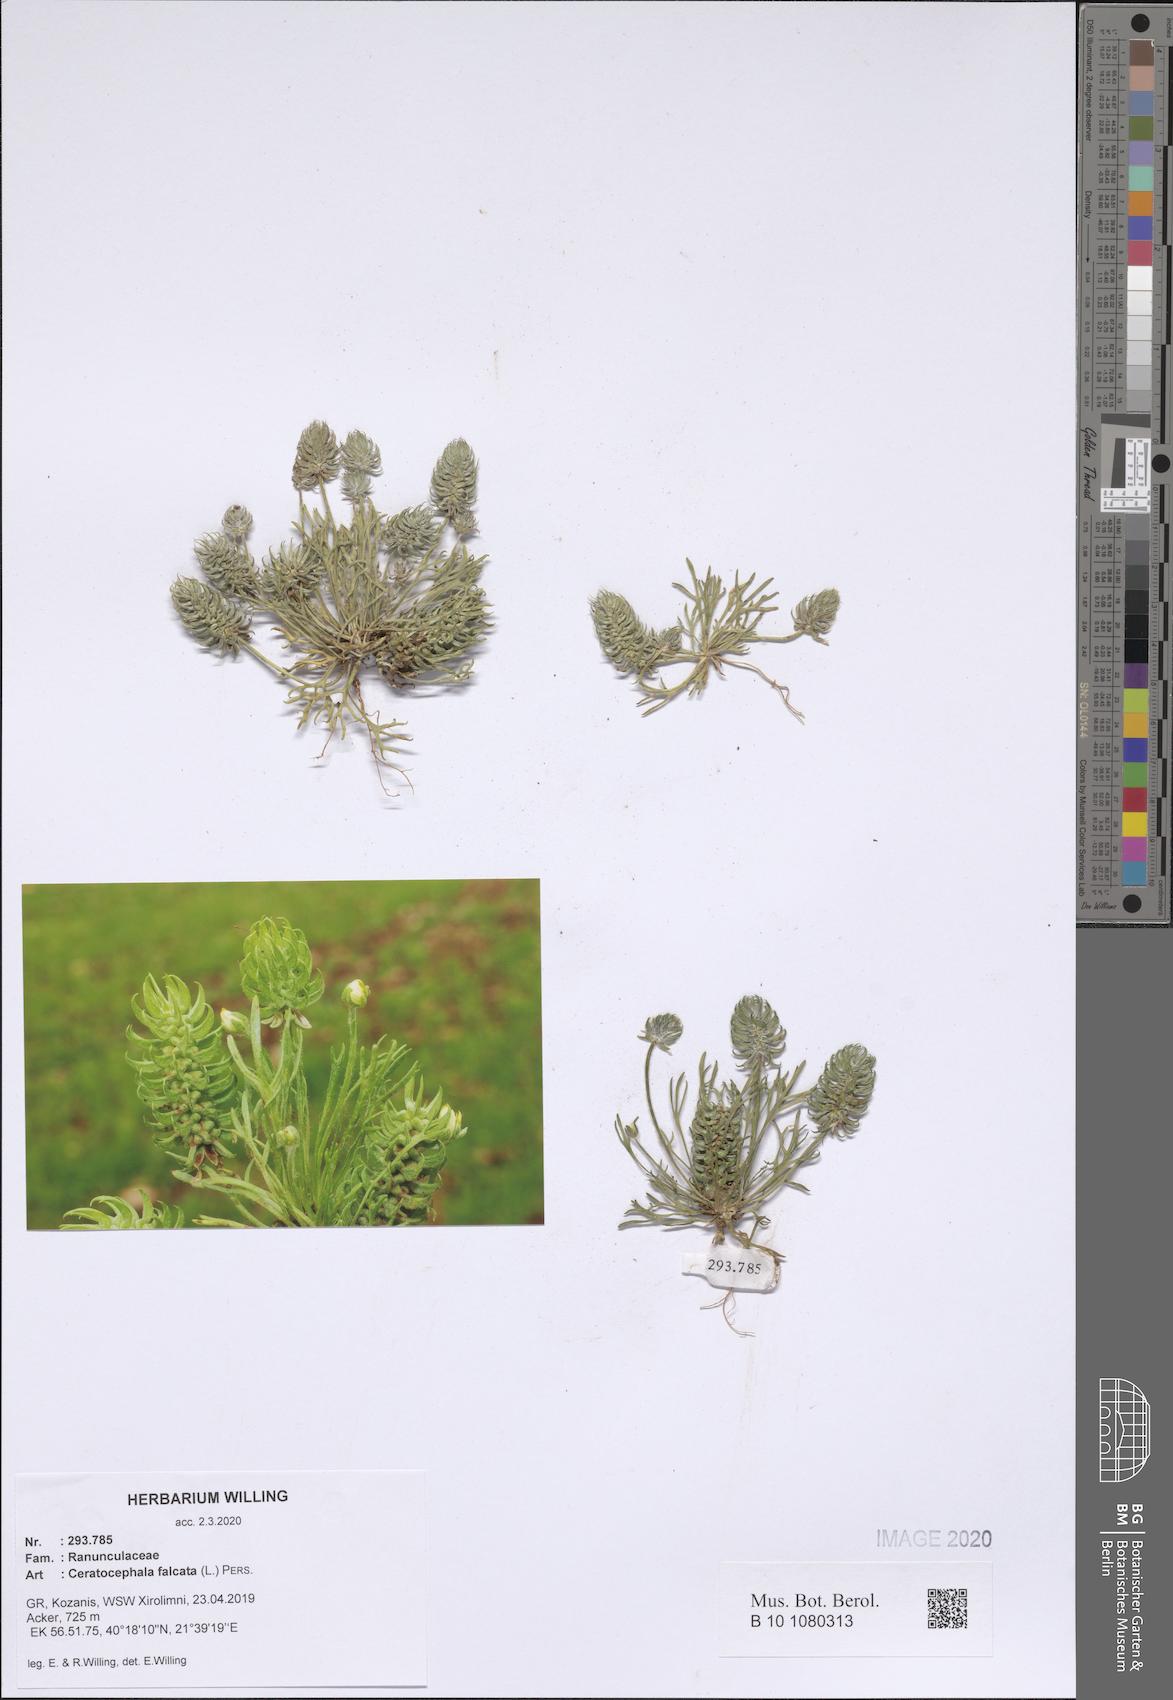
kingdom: Plantae
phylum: Tracheophyta
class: Magnoliopsida
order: Ranunculales
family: Ranunculaceae
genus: Ceratocephala
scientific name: Ceratocephala falcata
